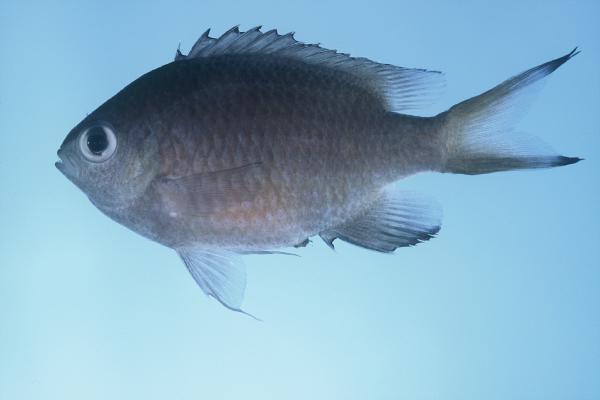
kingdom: Animalia
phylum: Chordata
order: Perciformes
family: Pomacentridae
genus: Chromis
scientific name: Chromis lepidolepis
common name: Scaly chromis
